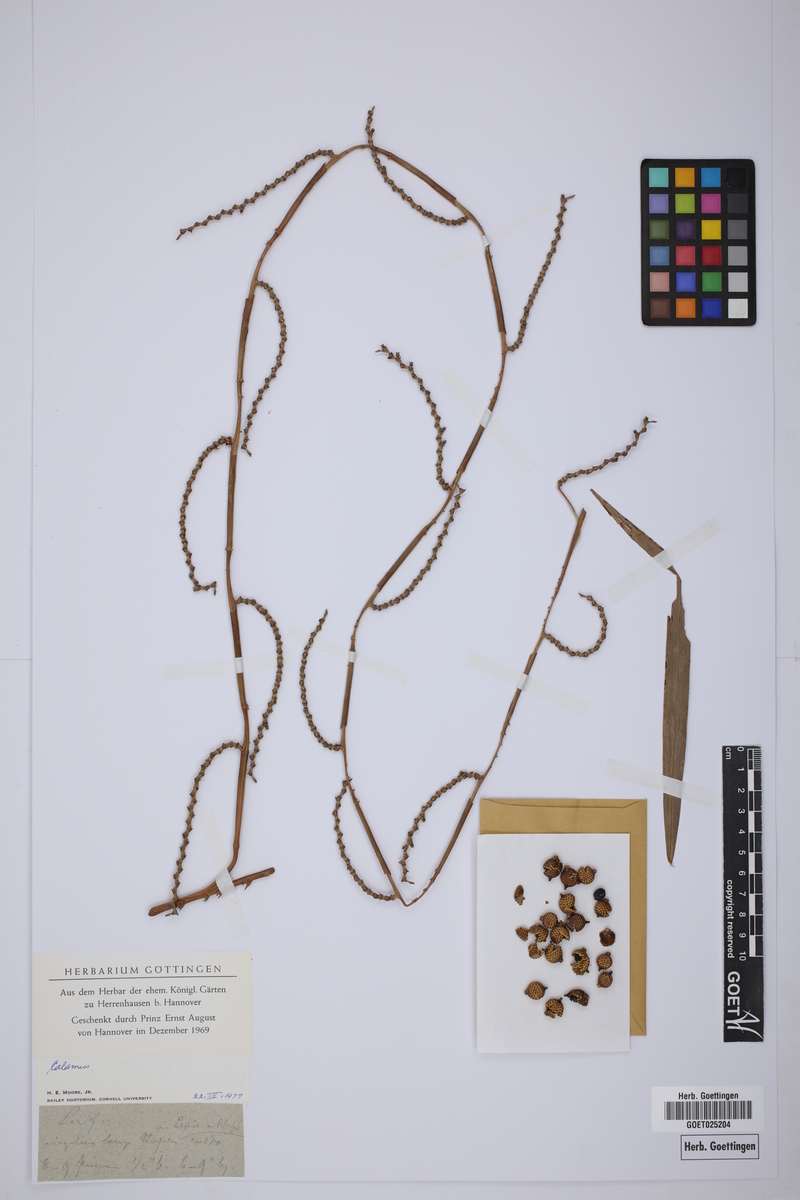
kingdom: Plantae
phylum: Tracheophyta
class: Liliopsida
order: Arecales
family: Arecaceae
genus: Calamus
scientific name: Calamus
